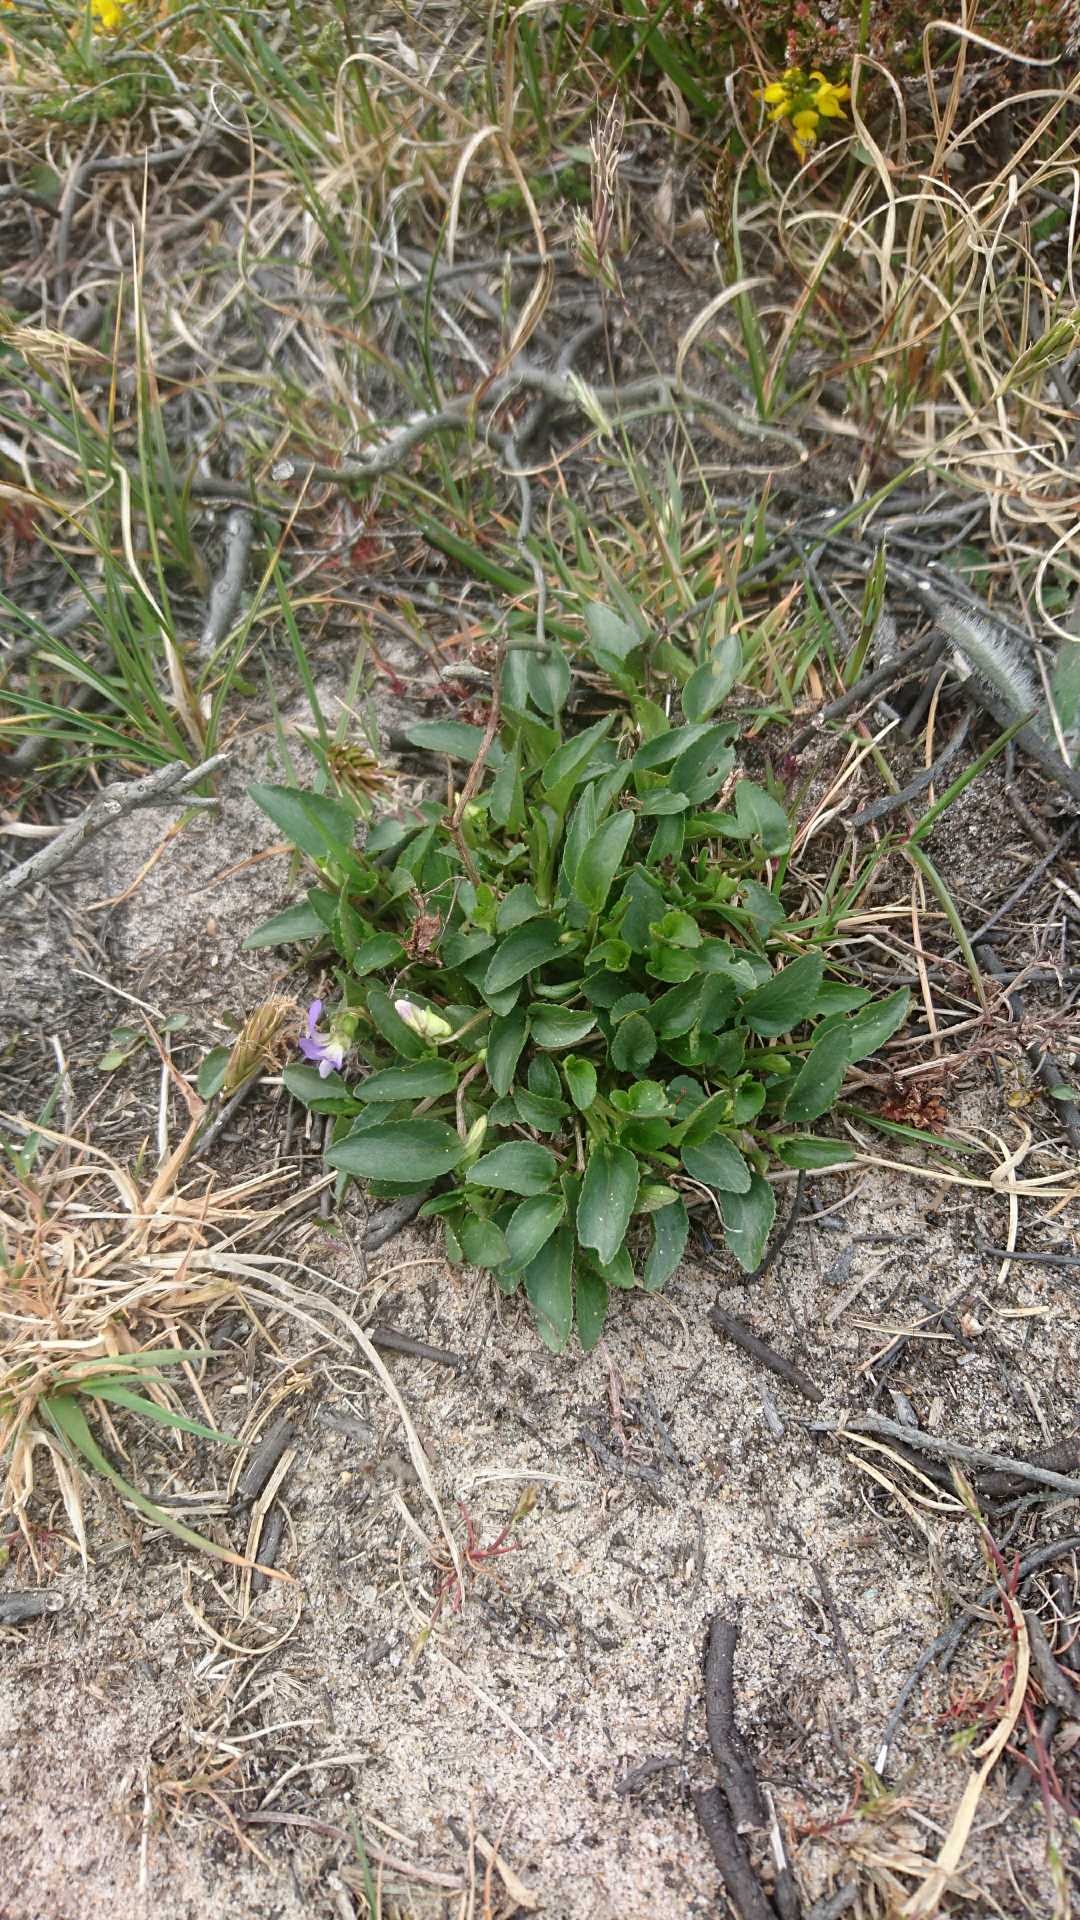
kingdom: Plantae
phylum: Tracheophyta
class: Magnoliopsida
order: Malpighiales
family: Violaceae
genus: Viola
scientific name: Viola canina
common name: Hunde-viol
